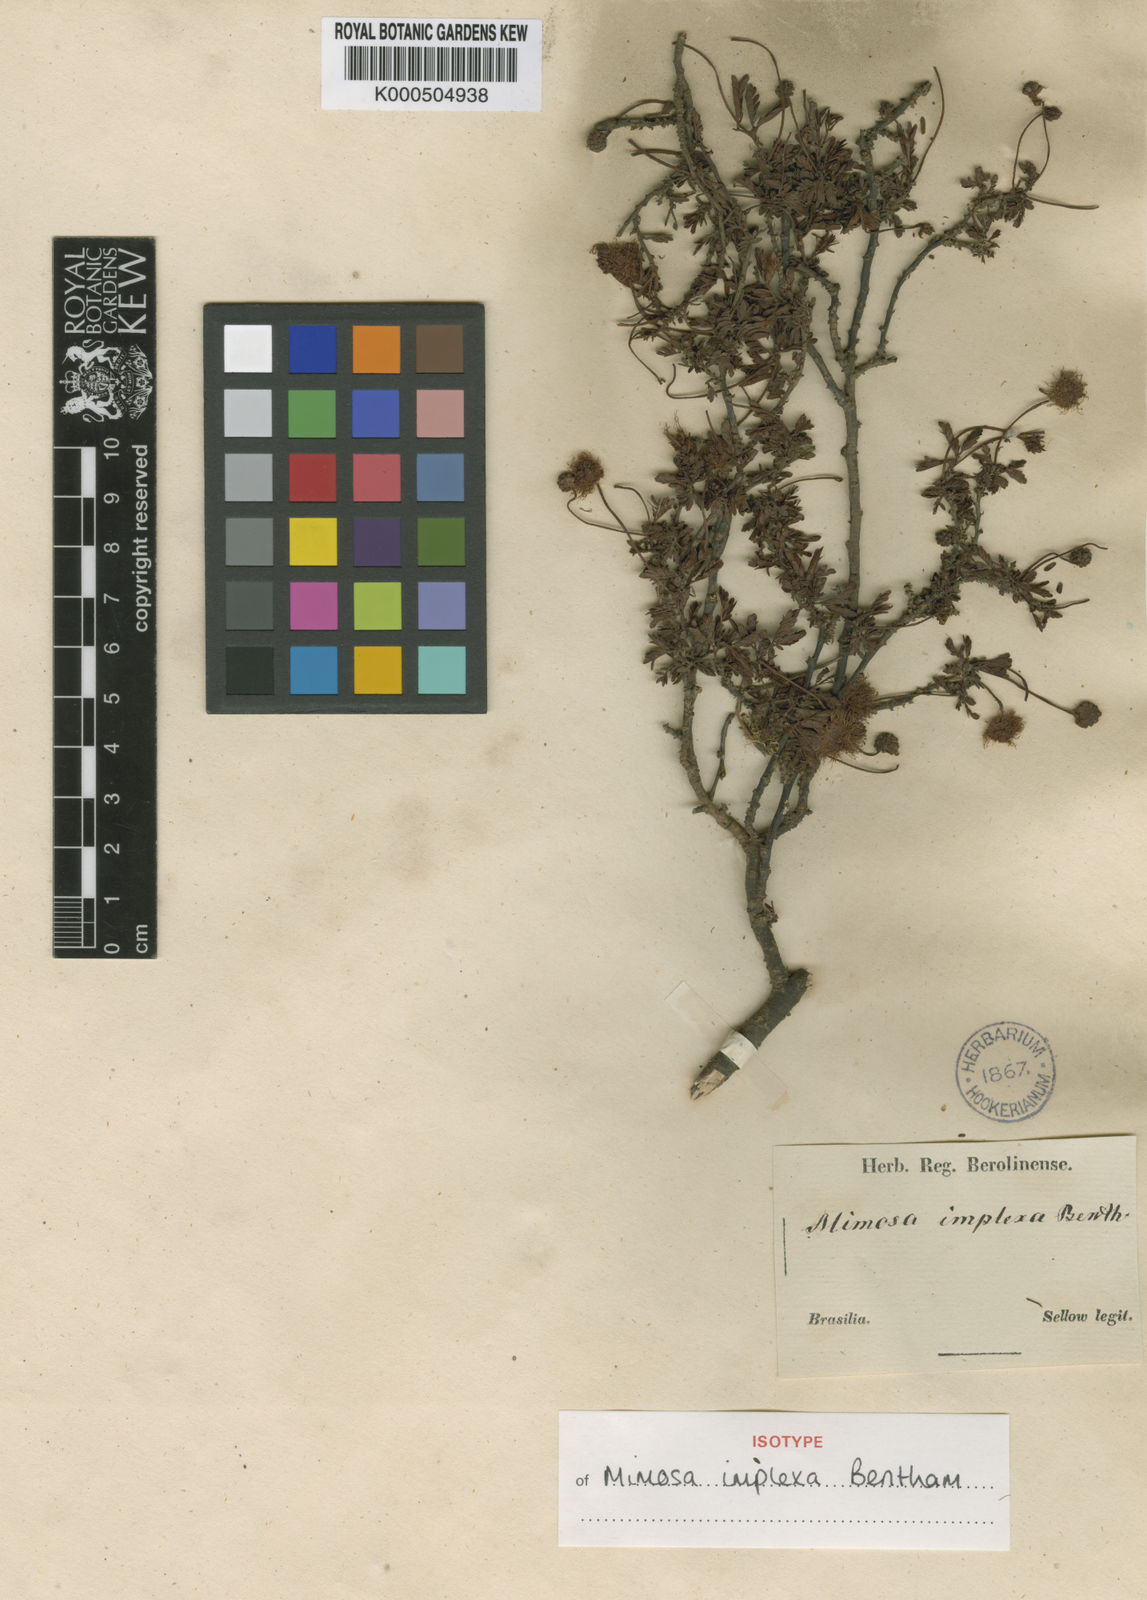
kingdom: Plantae
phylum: Tracheophyta
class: Magnoliopsida
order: Fabales
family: Fabaceae
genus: Mimosa
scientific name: Mimosa implexa
